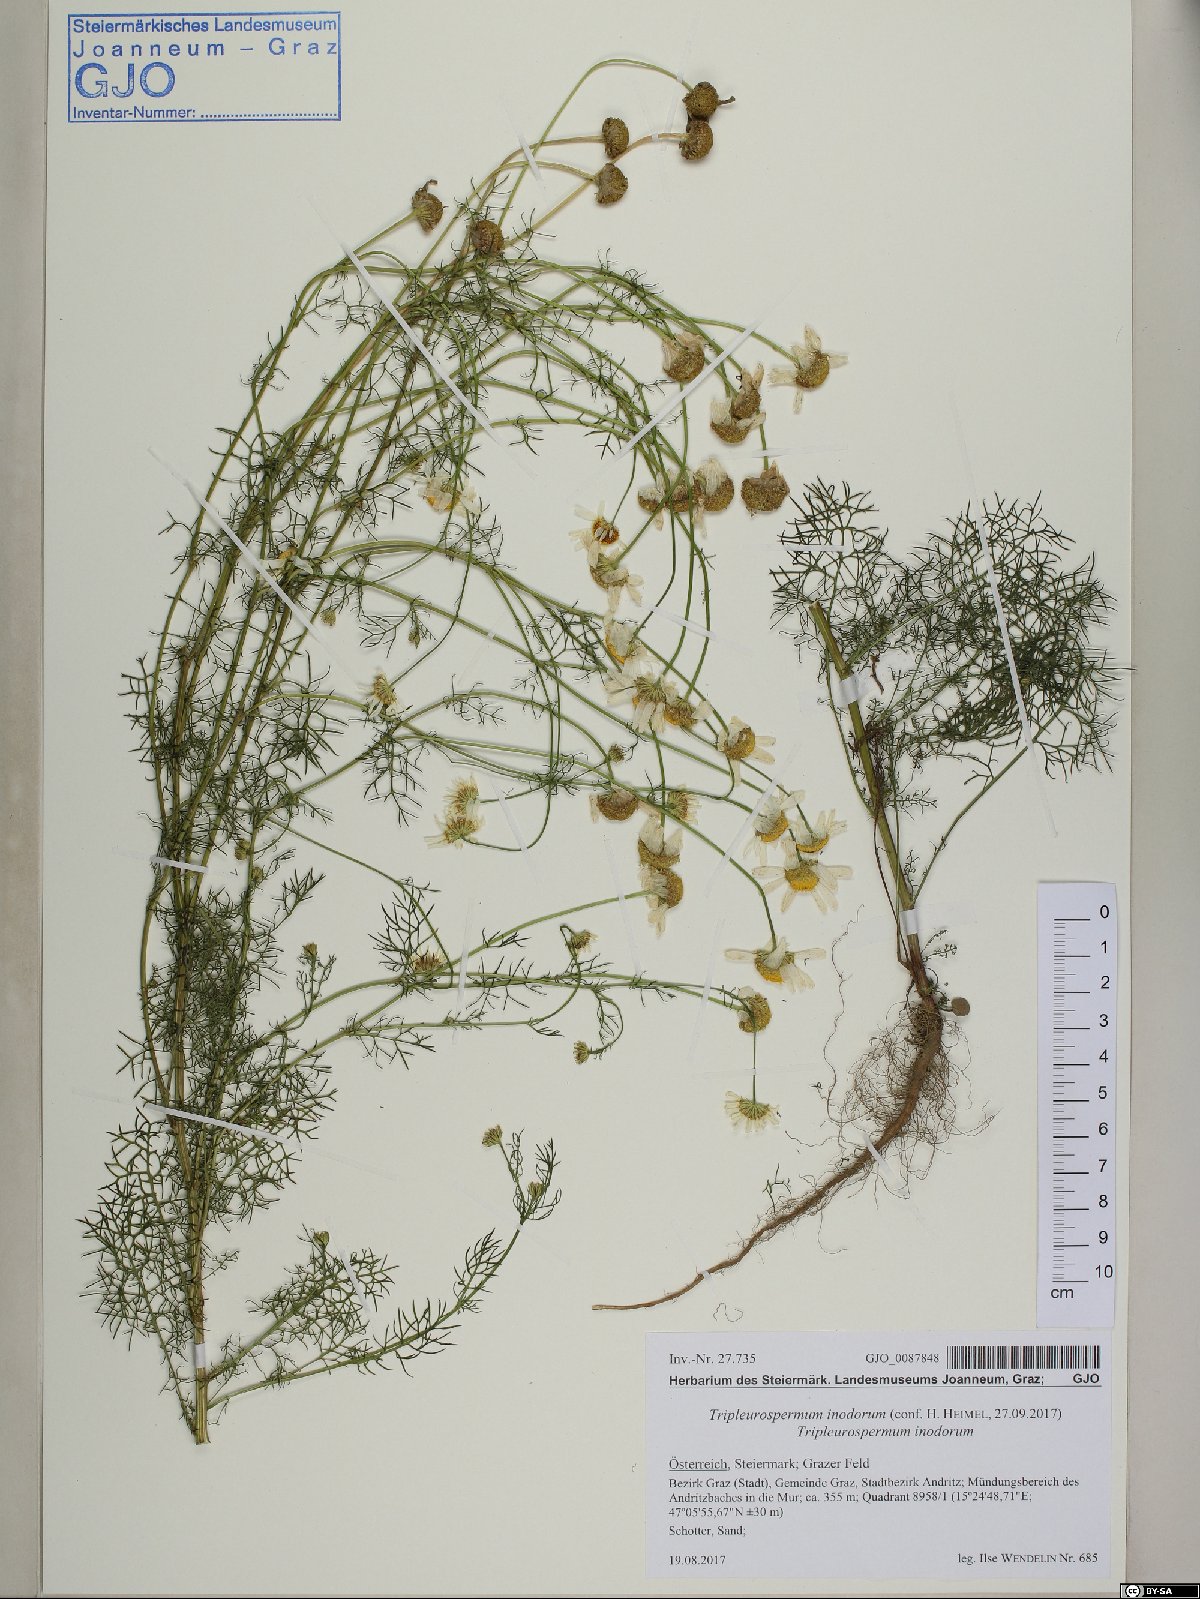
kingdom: Plantae
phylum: Tracheophyta
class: Magnoliopsida
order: Asterales
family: Asteraceae
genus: Tripleurospermum
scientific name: Tripleurospermum inodorum
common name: Scentless mayweed
